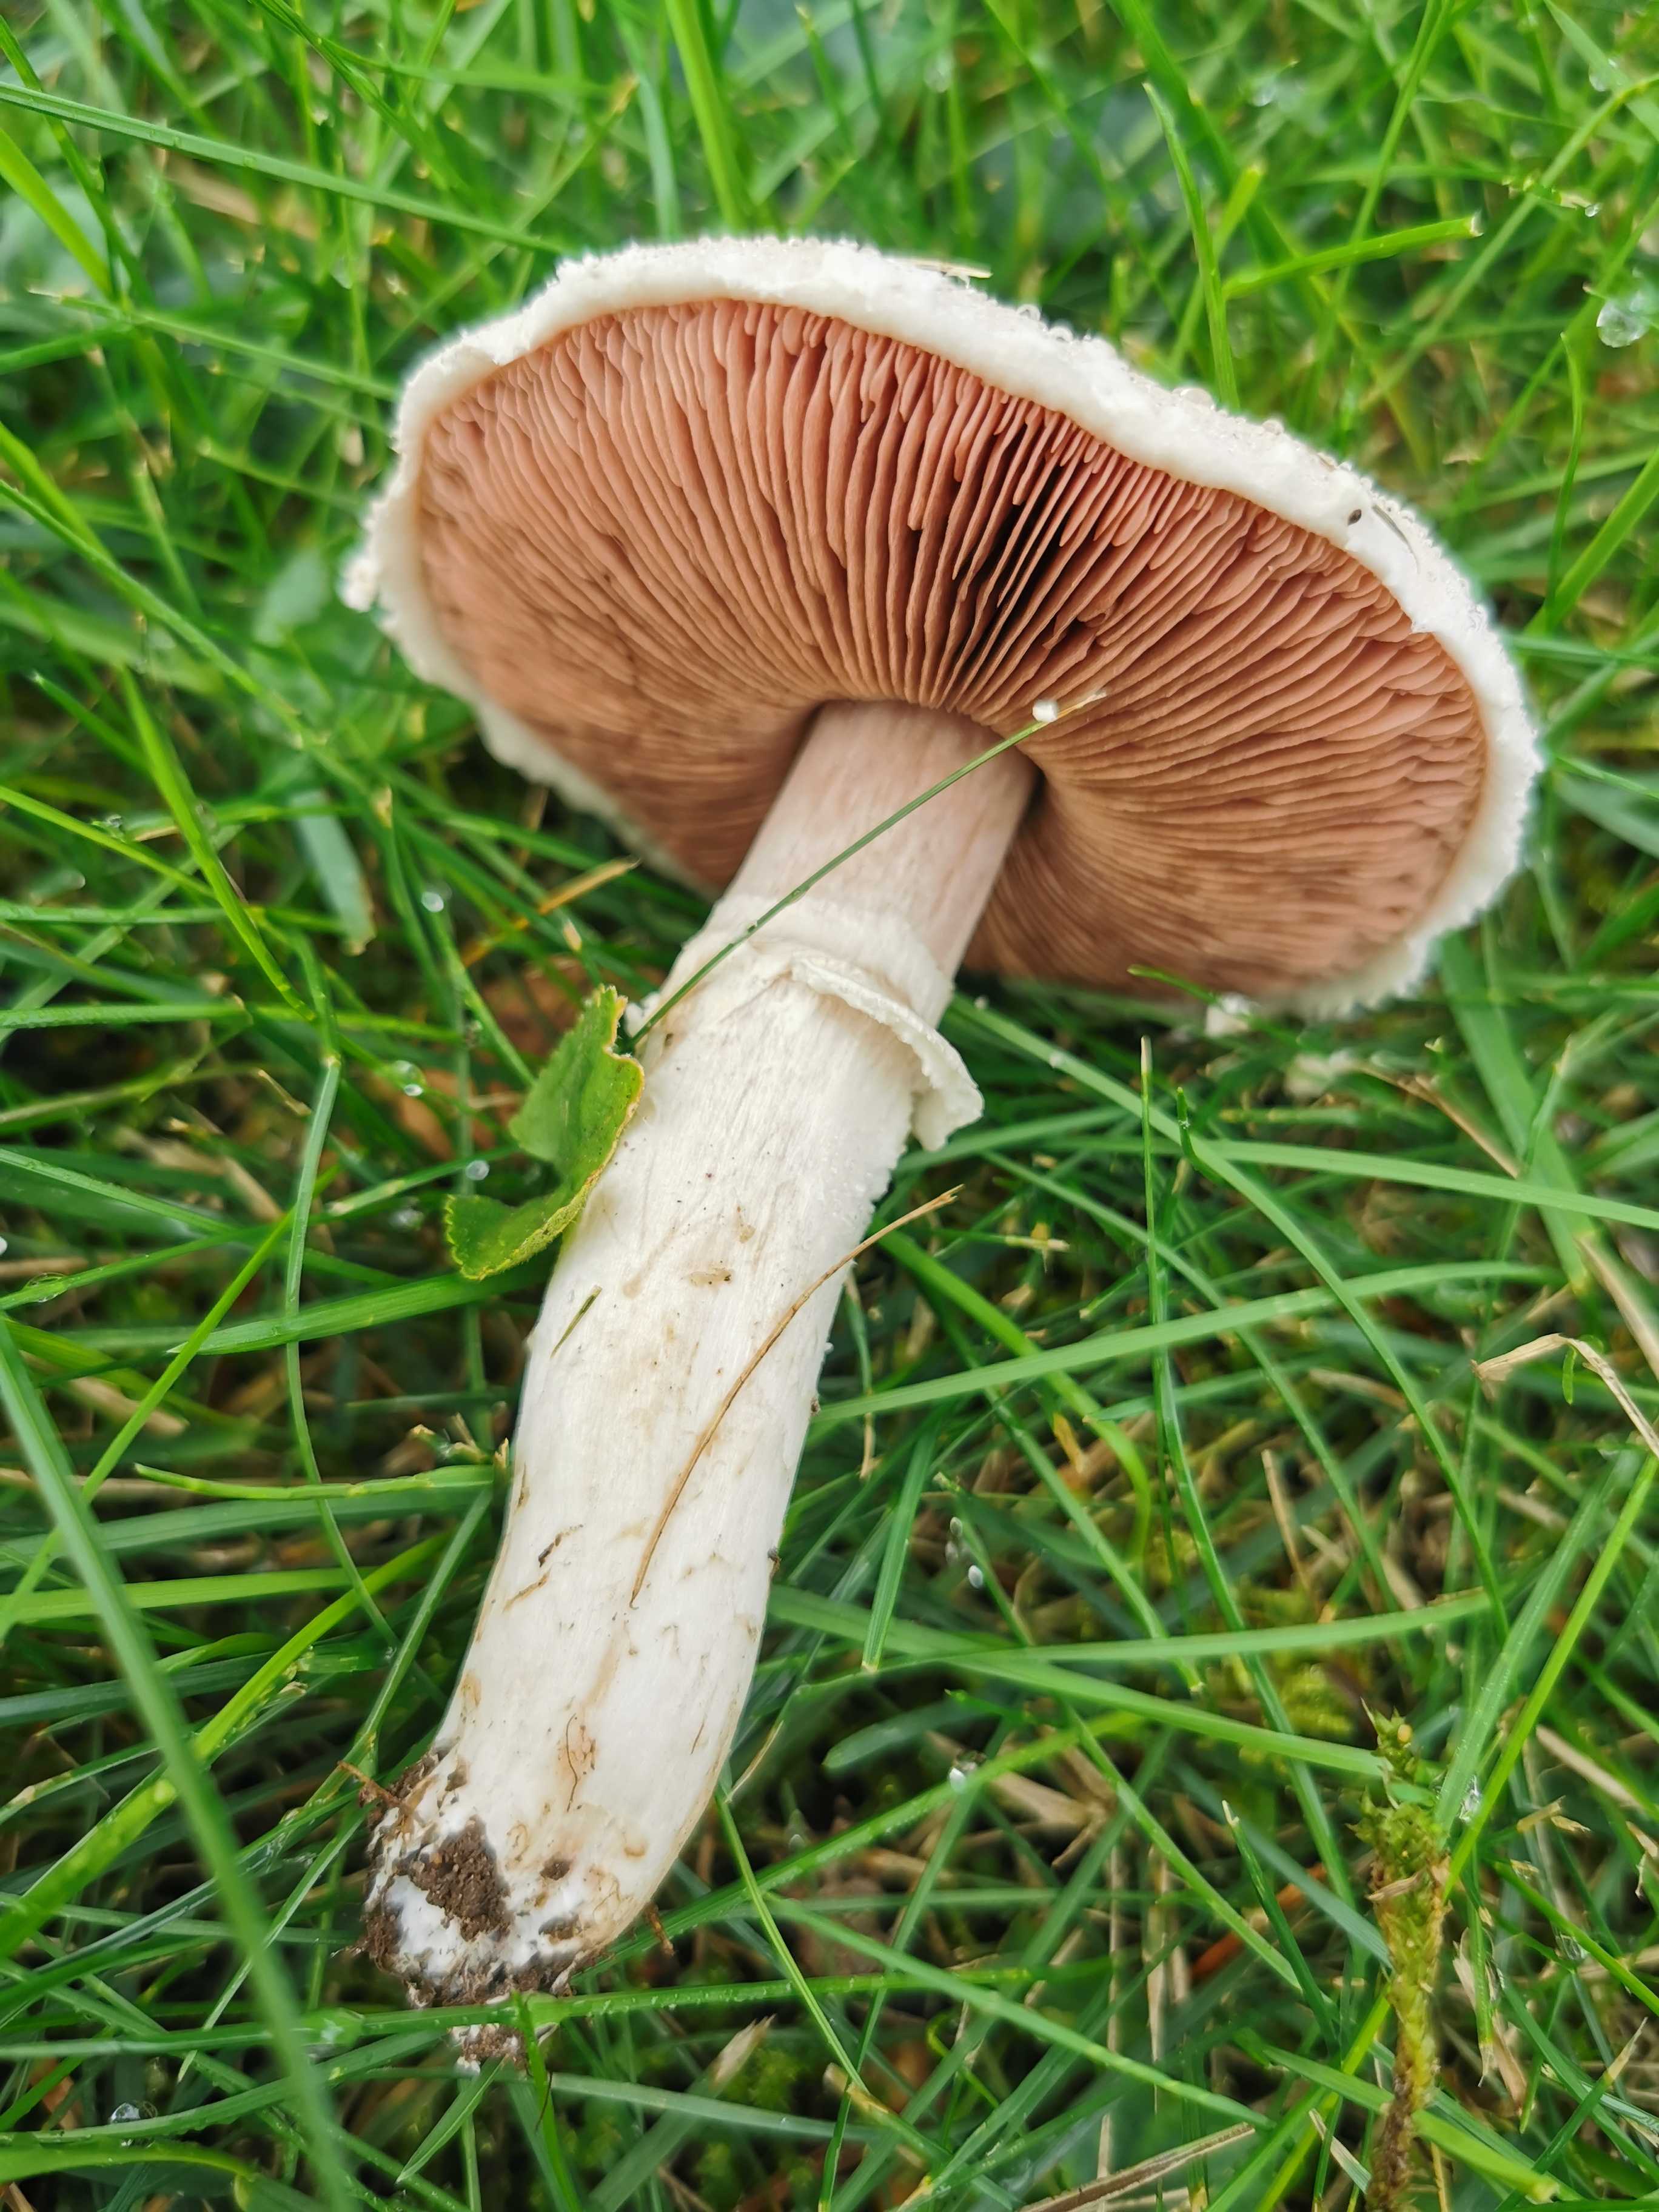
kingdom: Fungi
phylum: Basidiomycota
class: Agaricomycetes
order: Agaricales
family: Agaricaceae
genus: Agaricus
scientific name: Agaricus campestris
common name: mark-champignon
